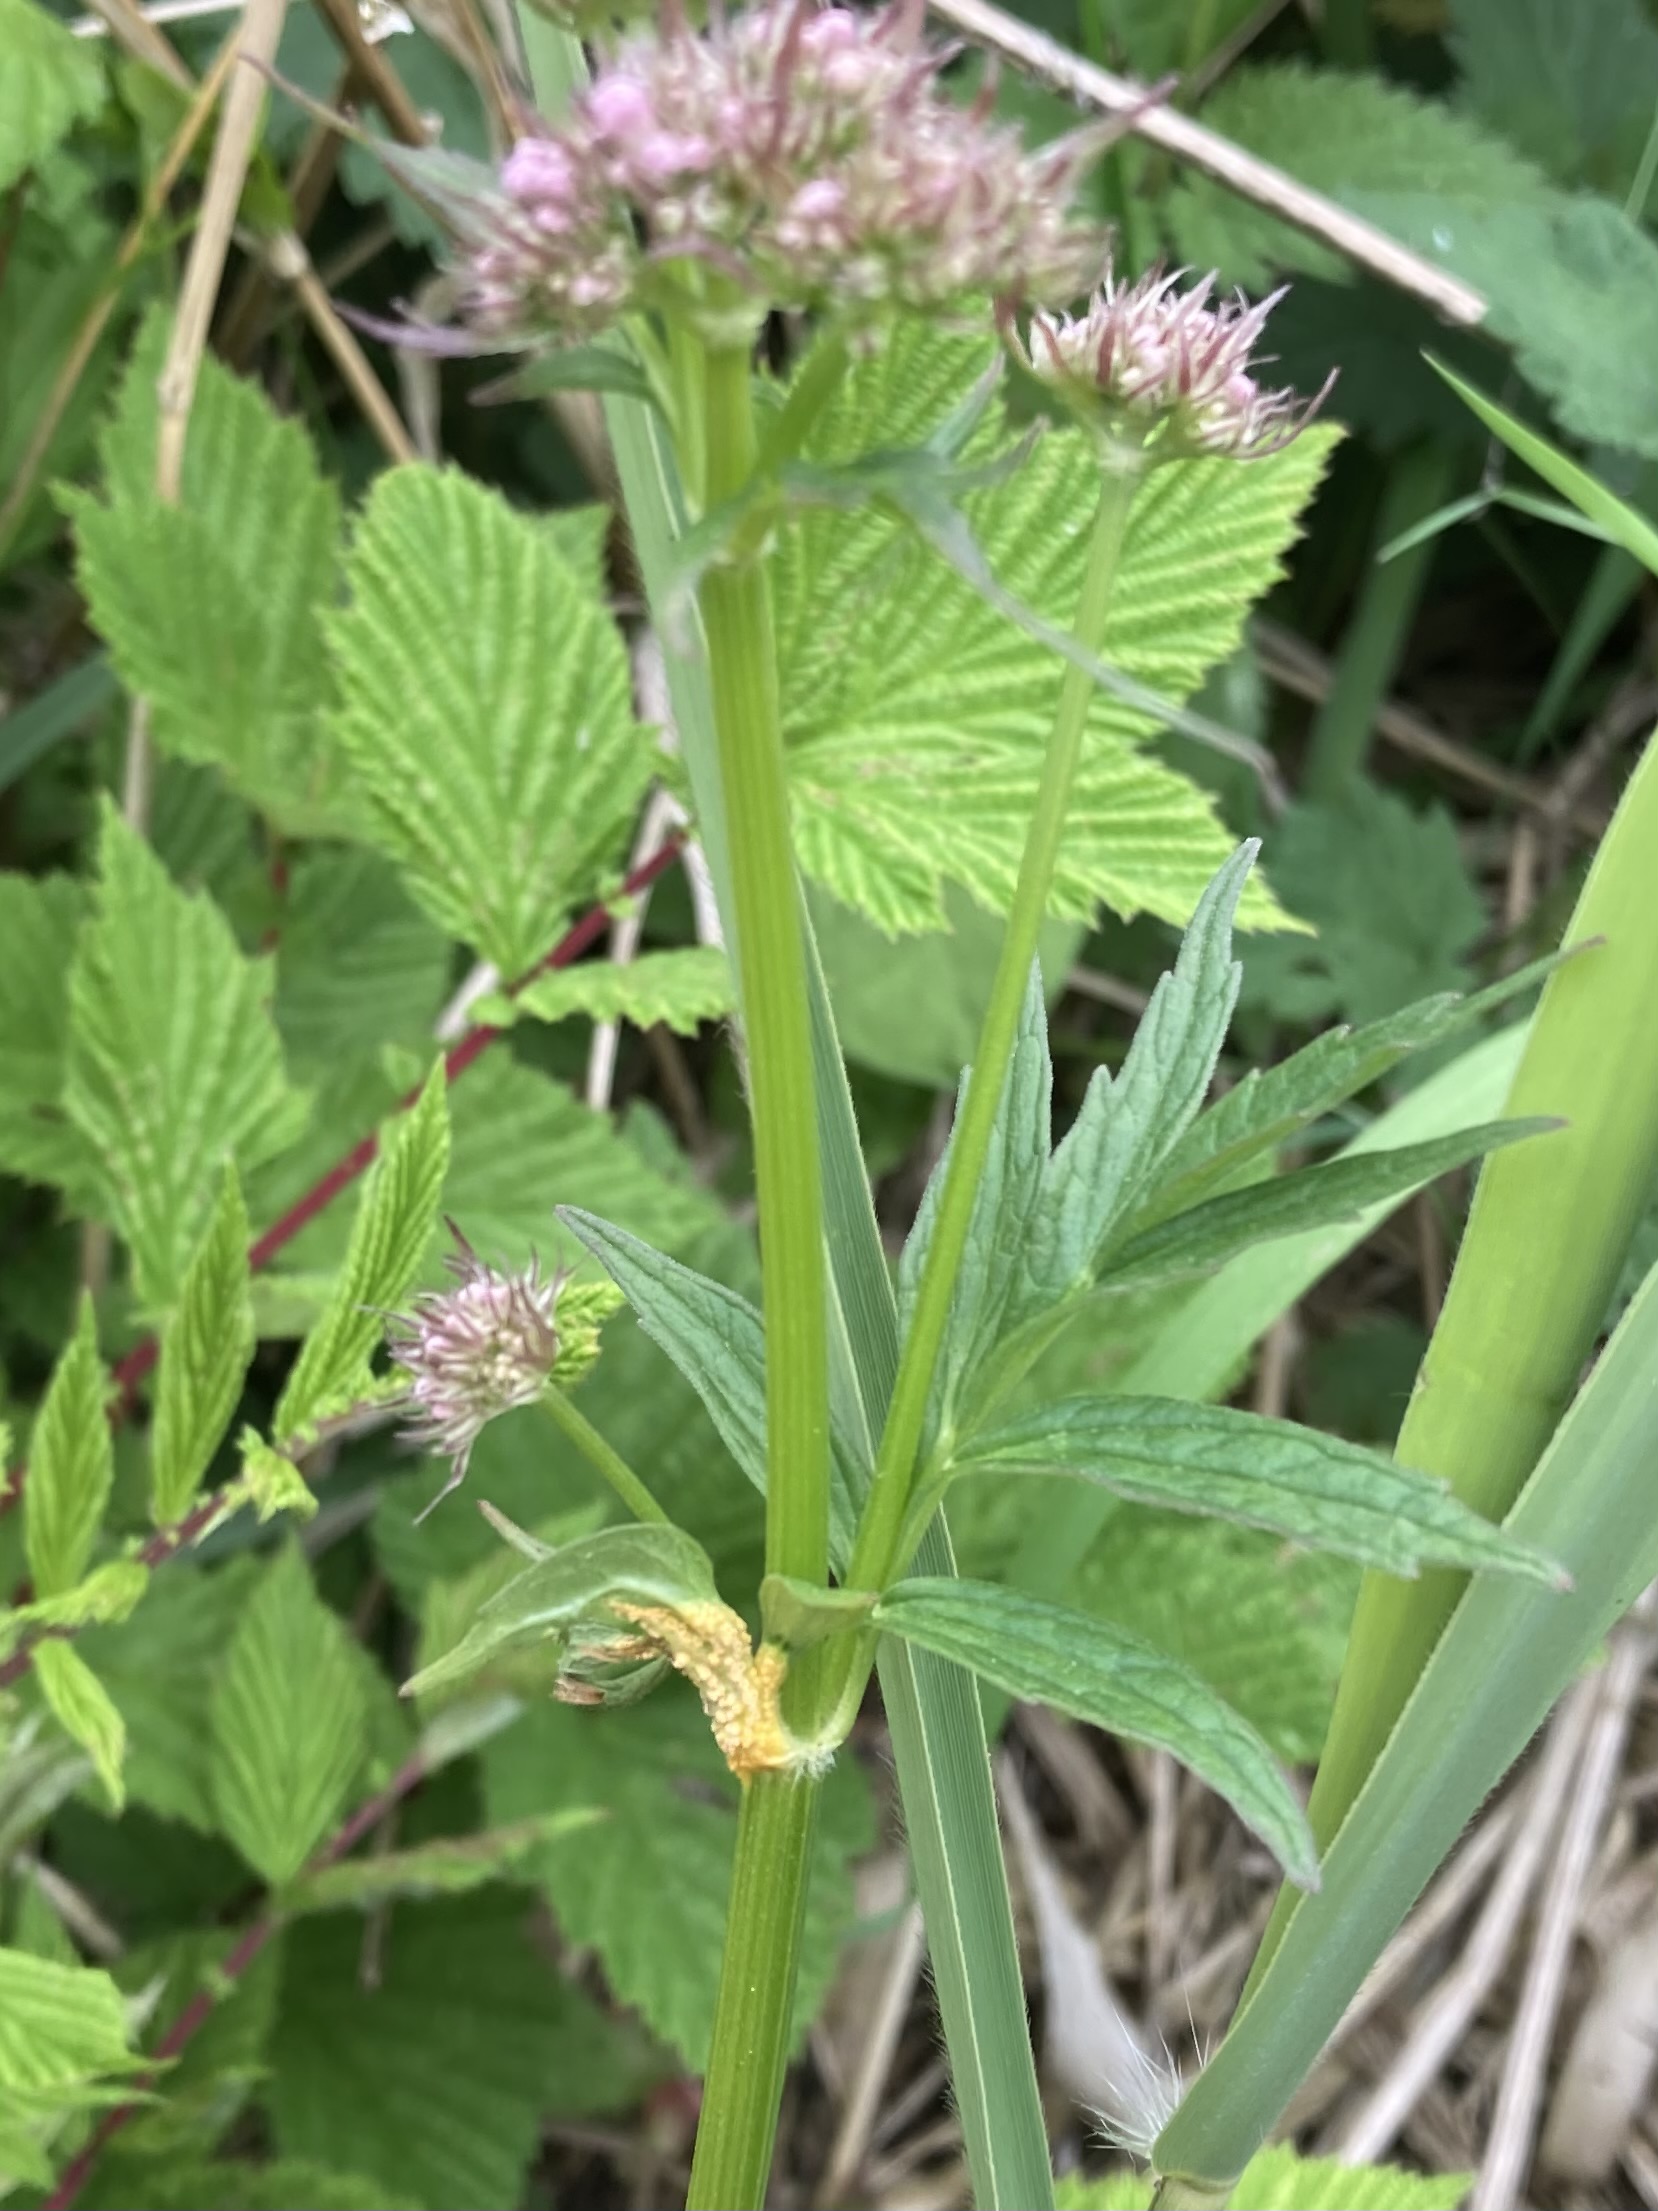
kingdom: Fungi
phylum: Basidiomycota
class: Pucciniomycetes
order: Pucciniales
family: Pucciniaceae
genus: Puccinia
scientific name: Puccinia commutata
